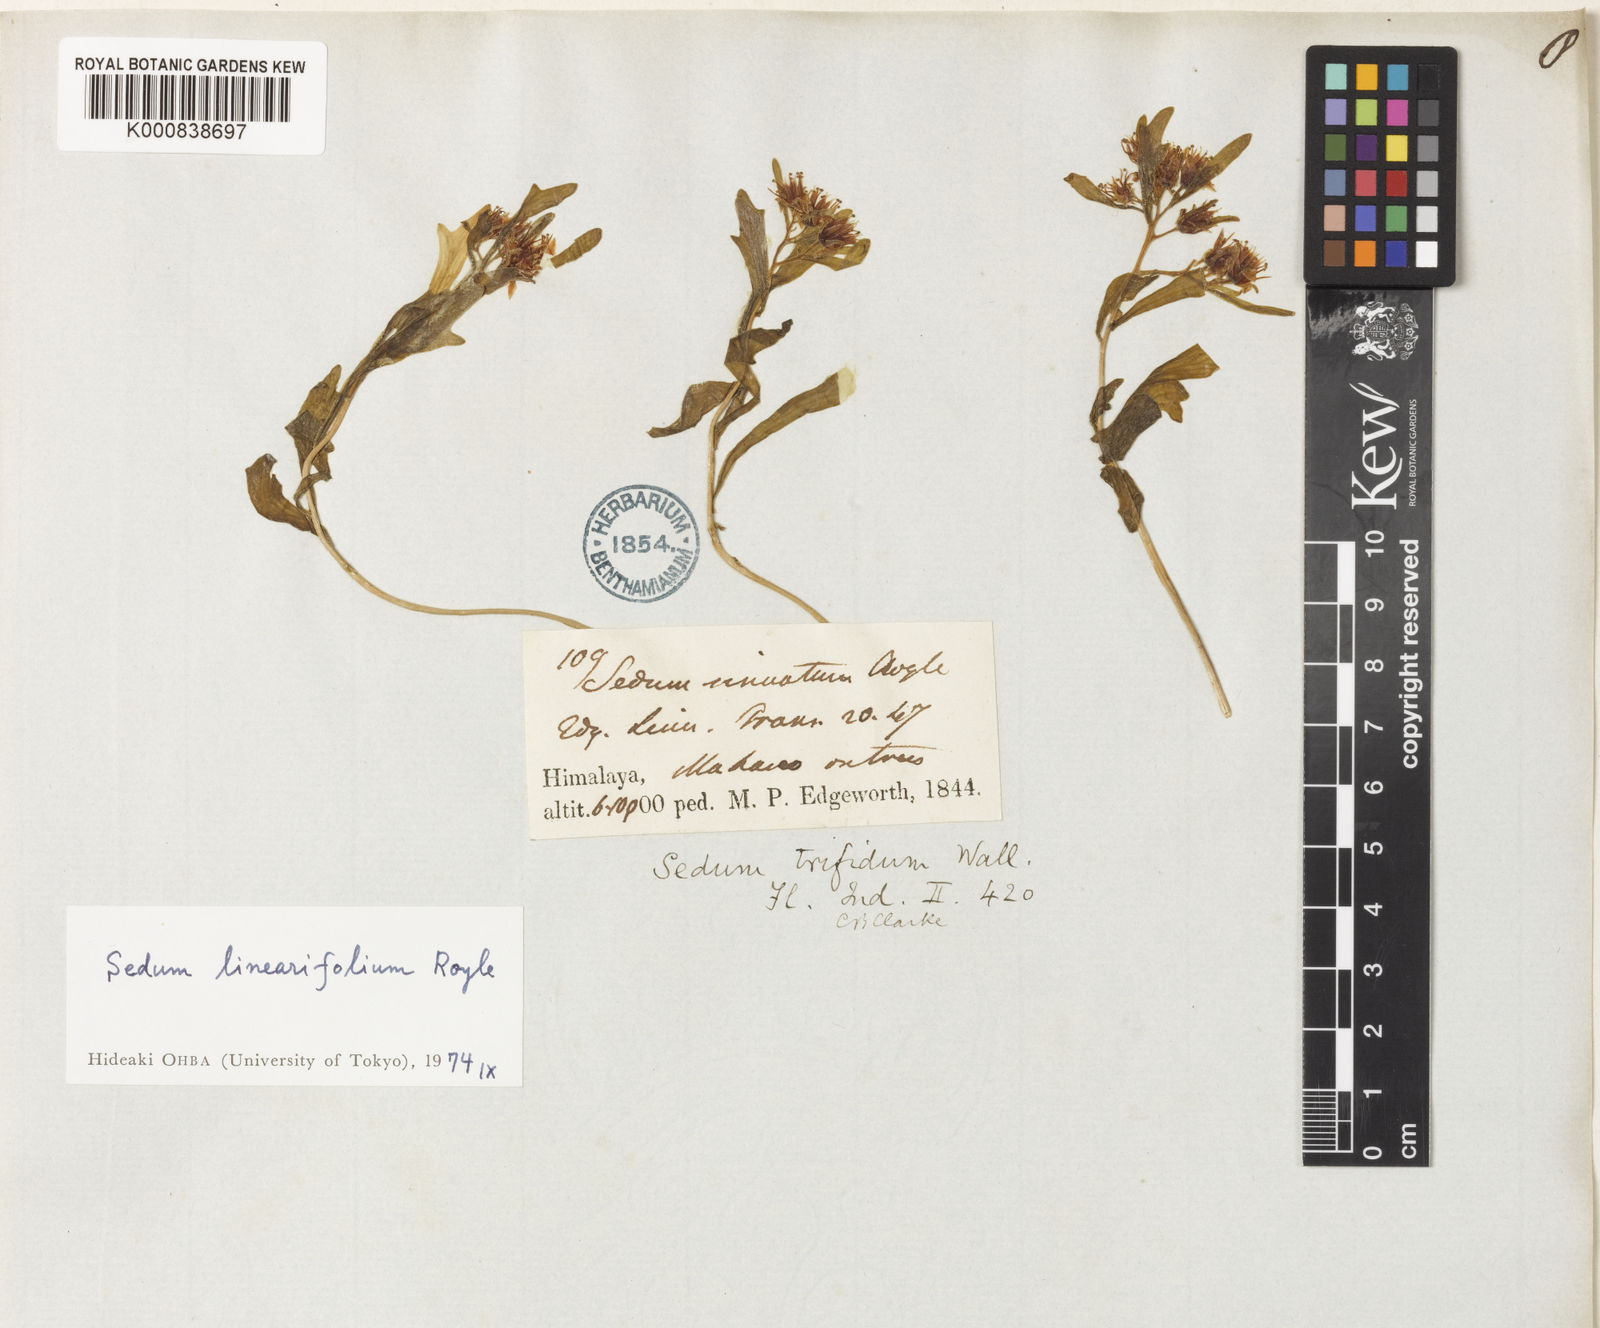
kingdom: Plantae
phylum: Tracheophyta
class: Magnoliopsida
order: Saxifragales
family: Crassulaceae
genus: Rhodiola
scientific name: Rhodiola sinuata
